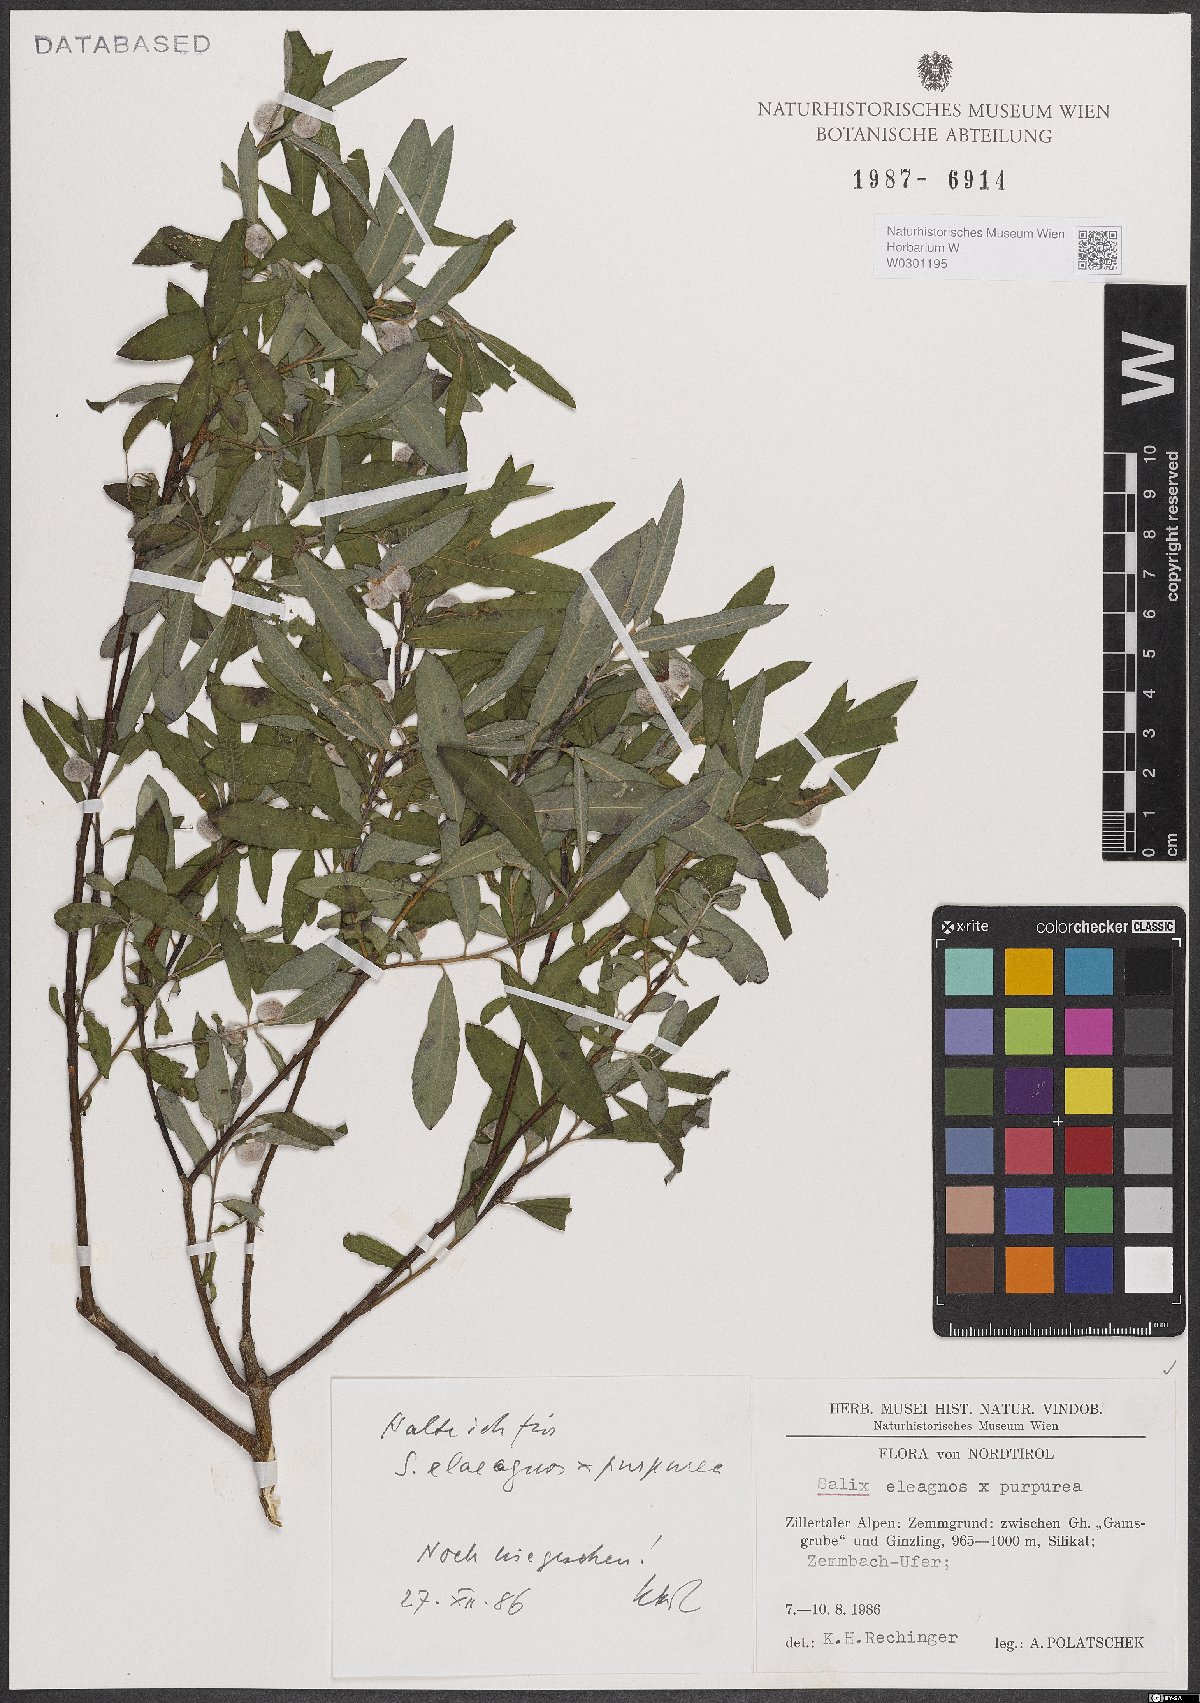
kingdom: Plantae
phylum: Tracheophyta
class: Magnoliopsida
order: Malpighiales
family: Salicaceae
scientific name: Salicaceae
